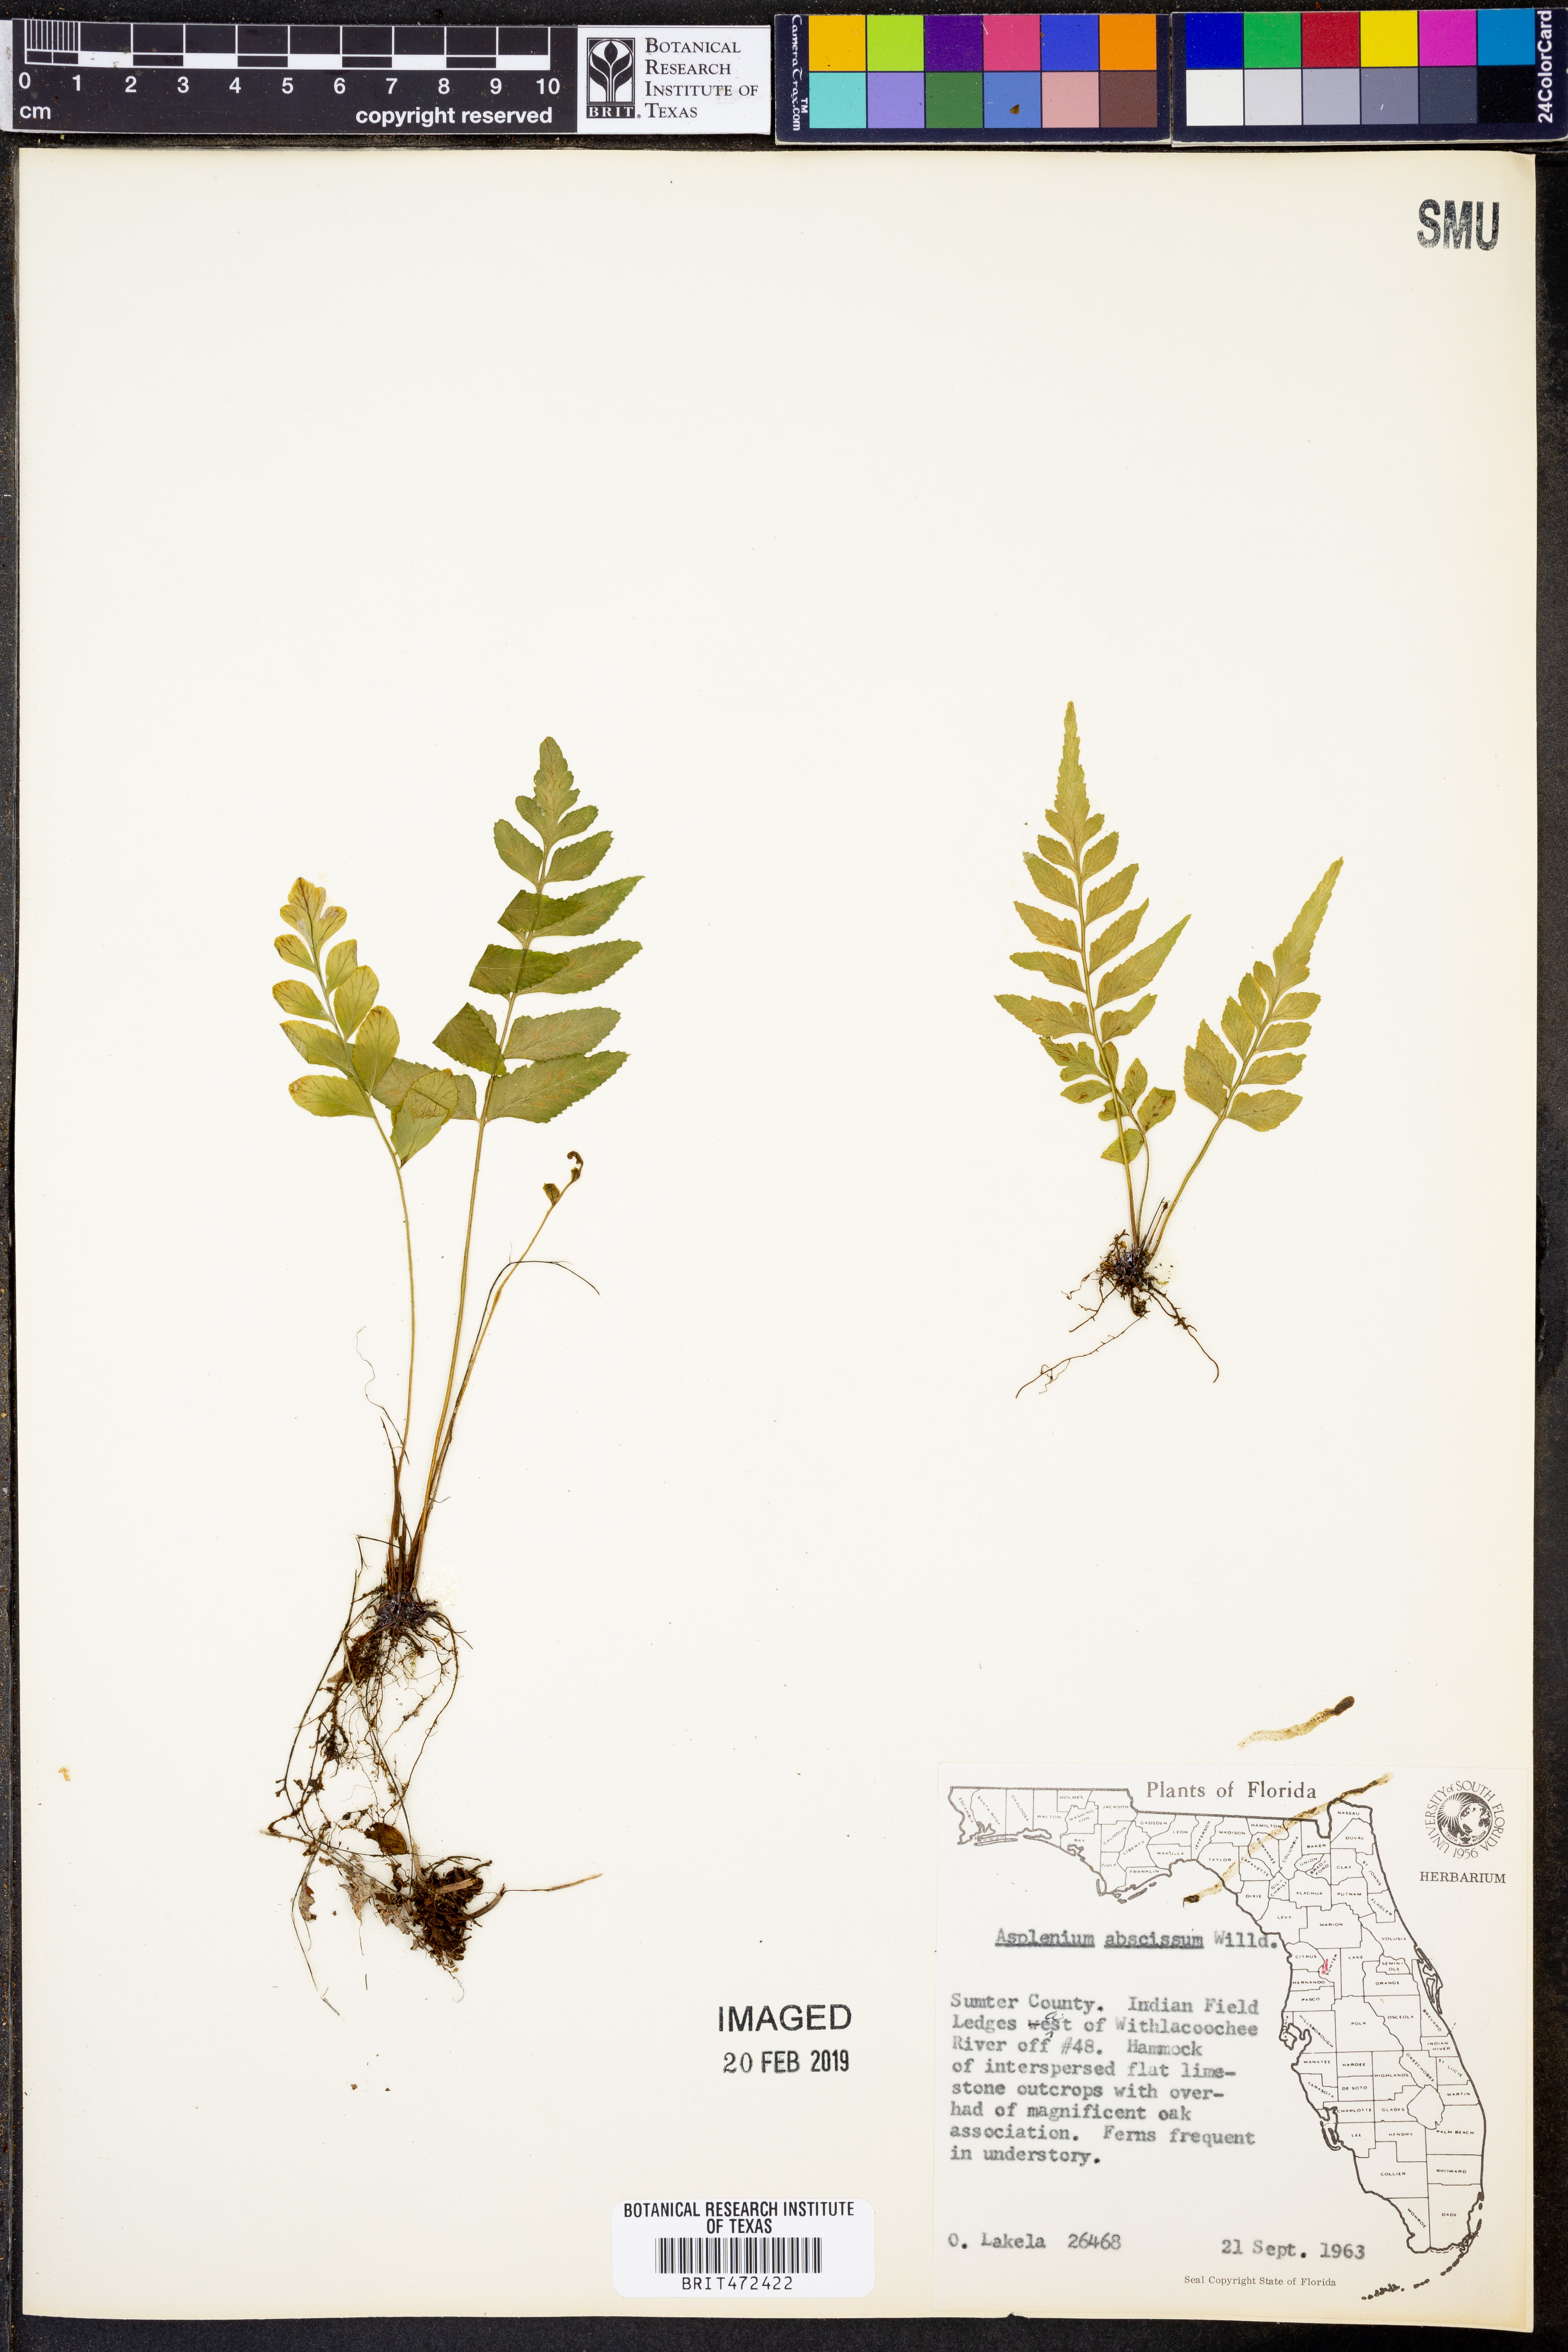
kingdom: Plantae
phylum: Tracheophyta
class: Polypodiopsida
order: Polypodiales
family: Aspleniaceae
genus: Asplenium
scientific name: Asplenium abscissum
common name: Cutleaf spleenwort
